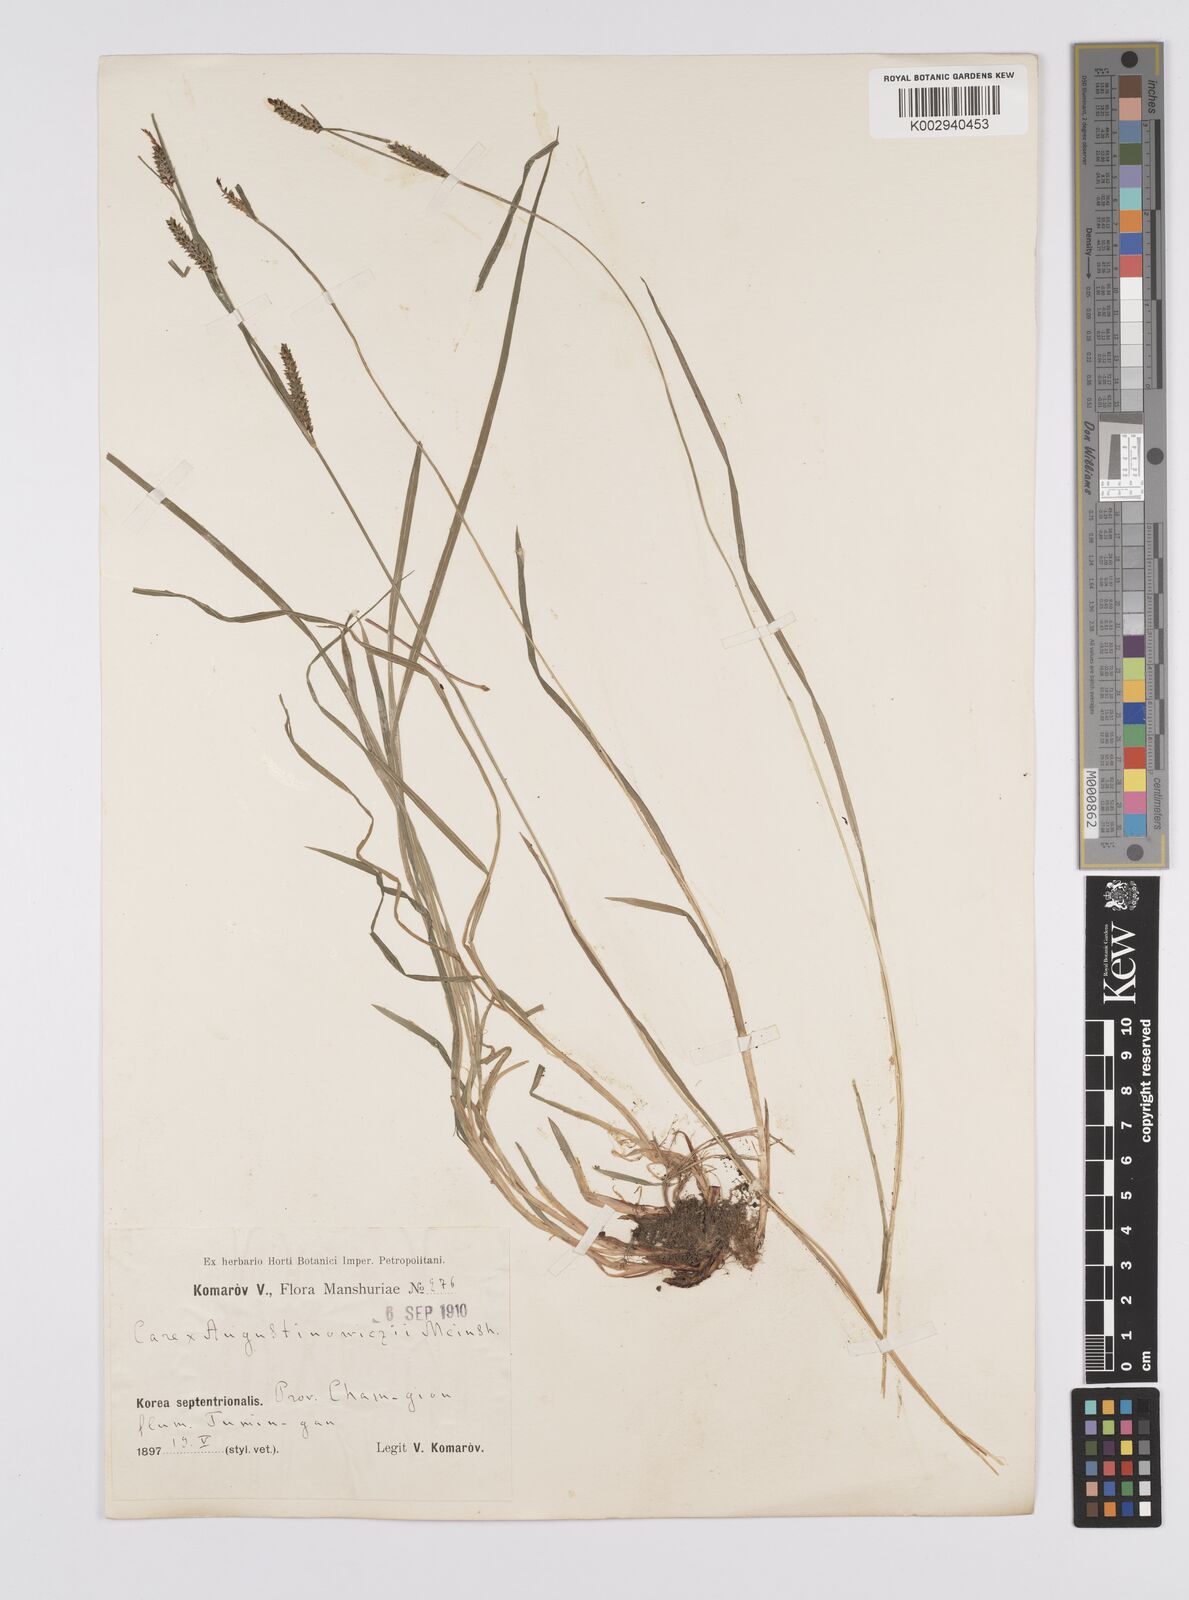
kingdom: Plantae
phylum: Tracheophyta
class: Liliopsida
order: Poales
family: Cyperaceae
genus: Carex
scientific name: Carex augustinowiczii
